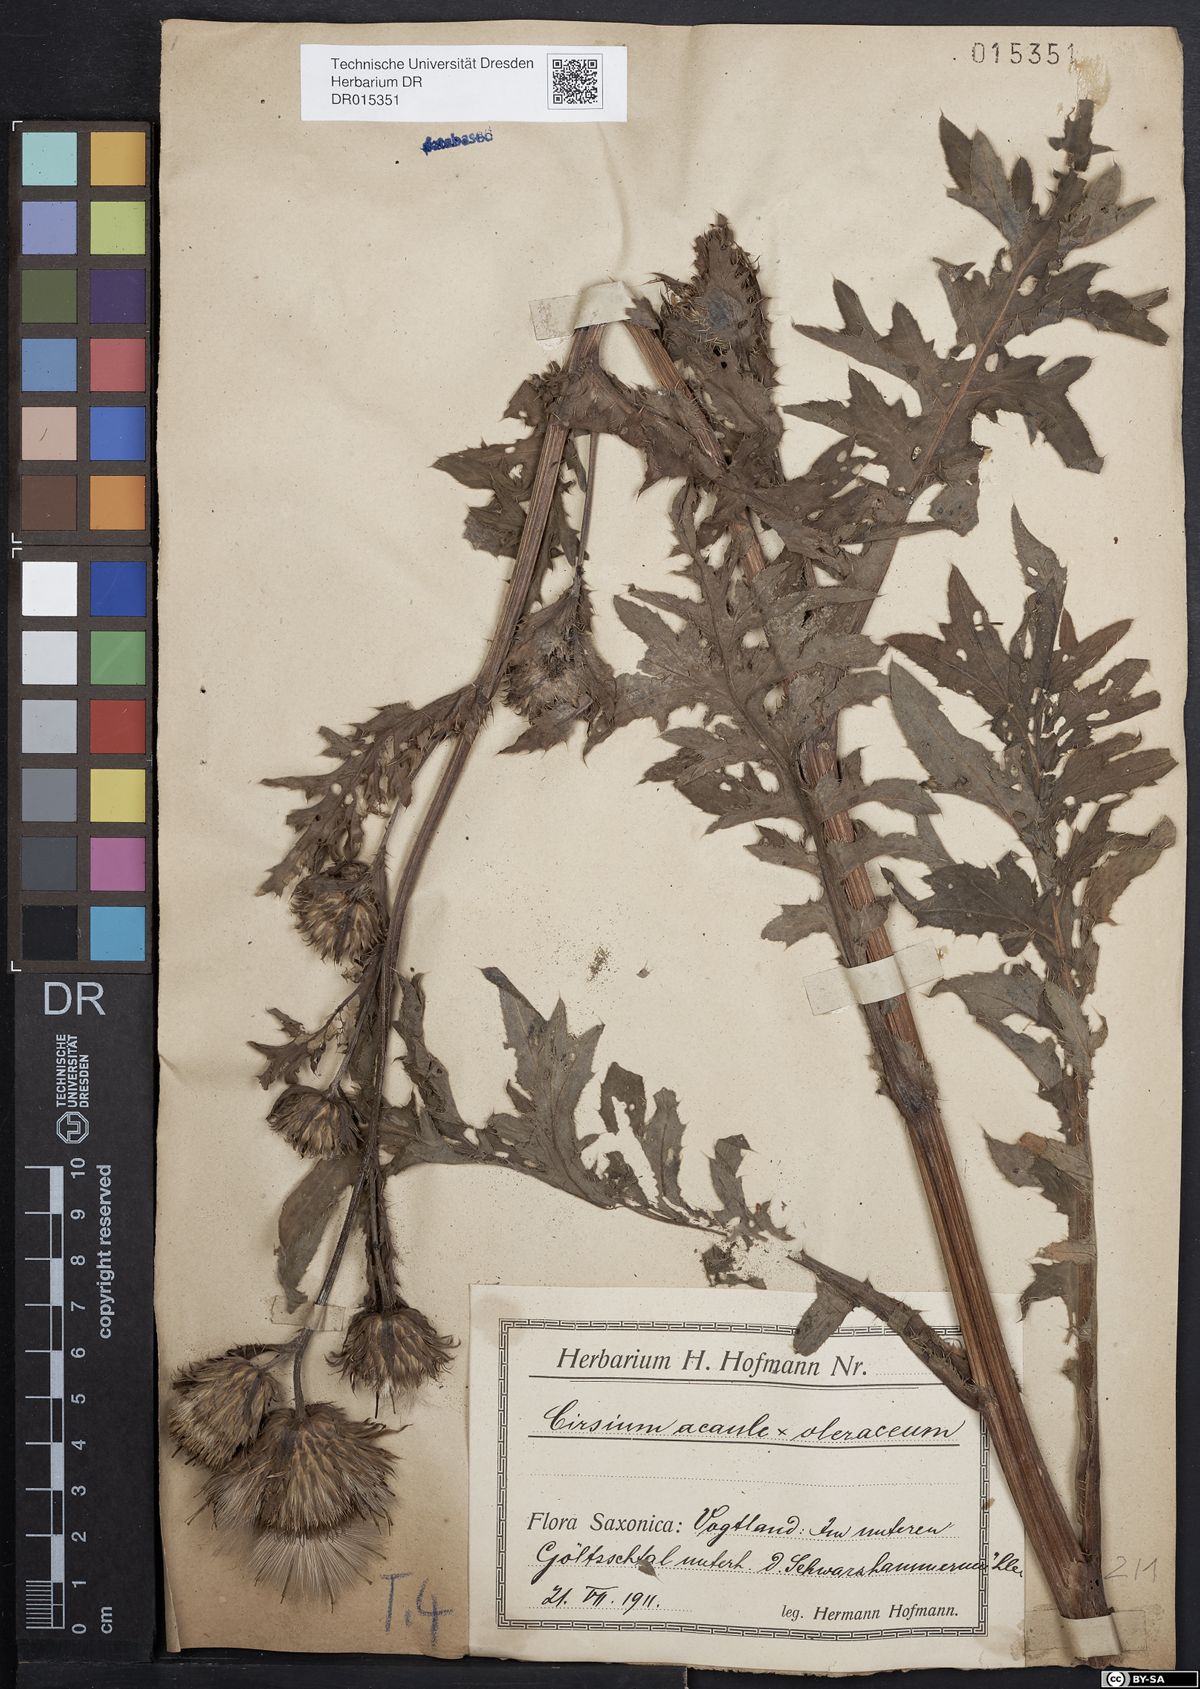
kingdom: Plantae
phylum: Tracheophyta
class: Magnoliopsida
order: Asterales
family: Asteraceae
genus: Cirsium
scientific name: Cirsium rigens
